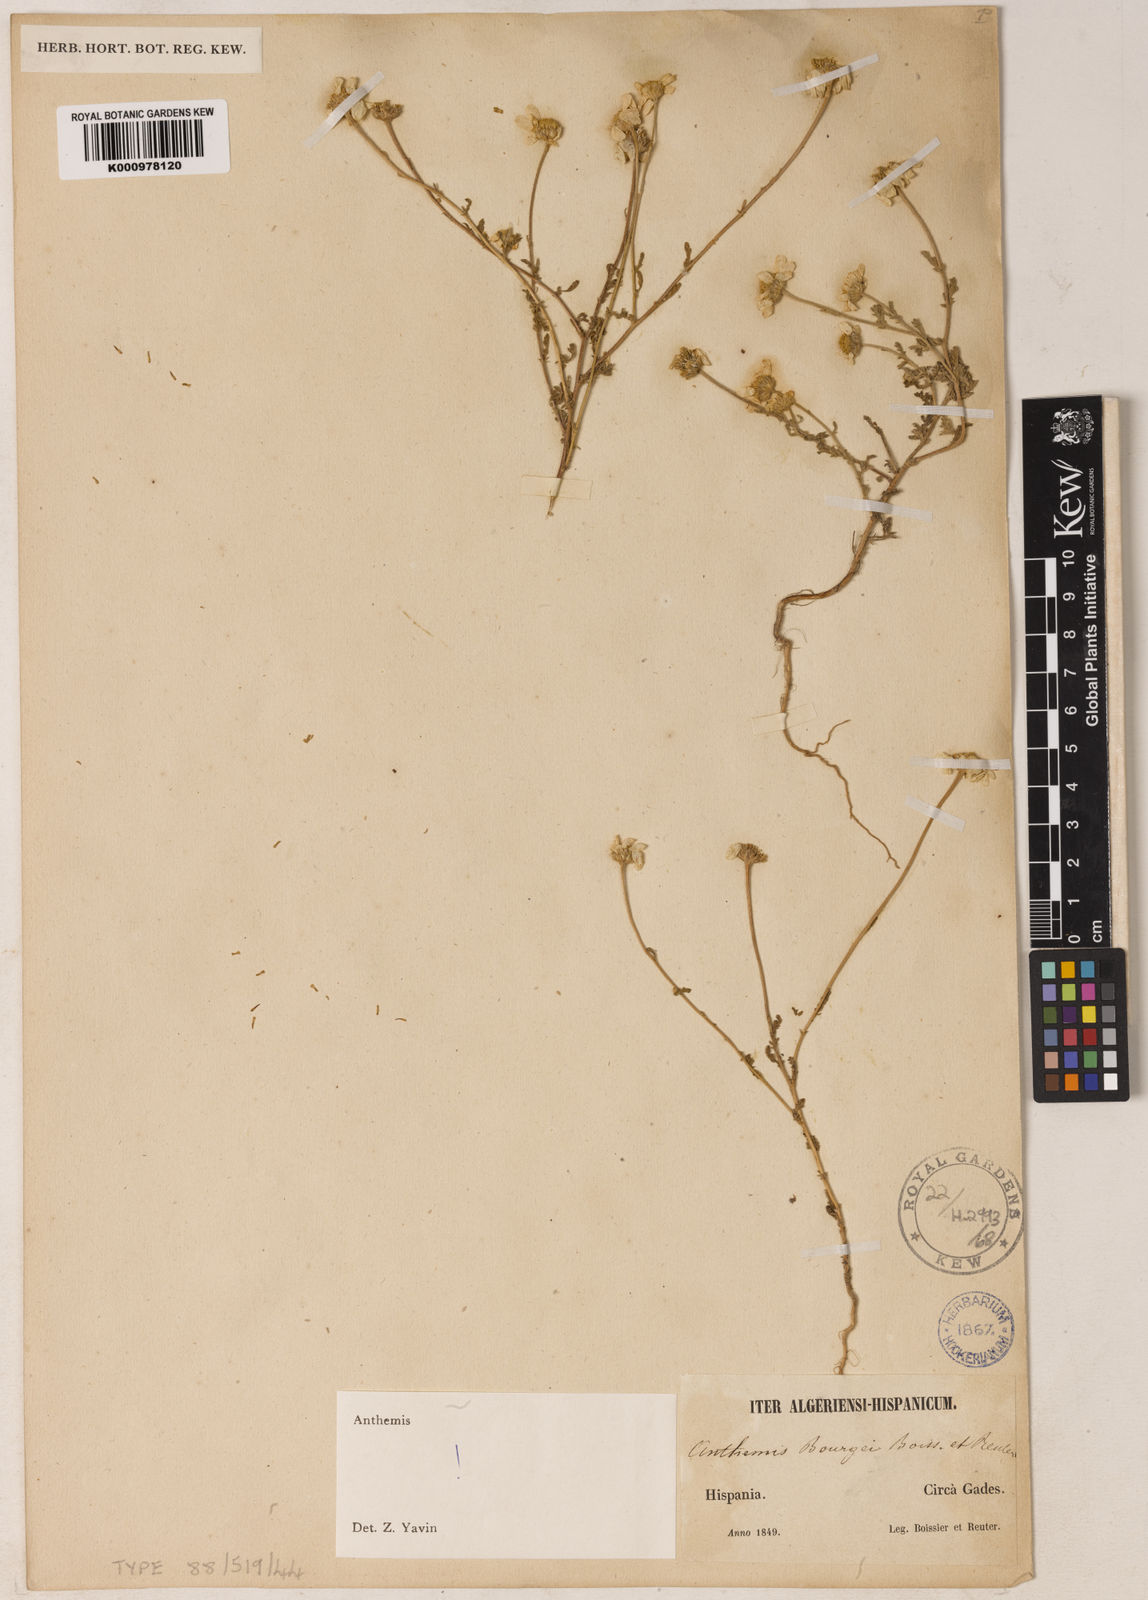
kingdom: Plantae
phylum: Tracheophyta
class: Magnoliopsida
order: Asterales
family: Asteraceae
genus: Anthemis
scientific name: Anthemis
